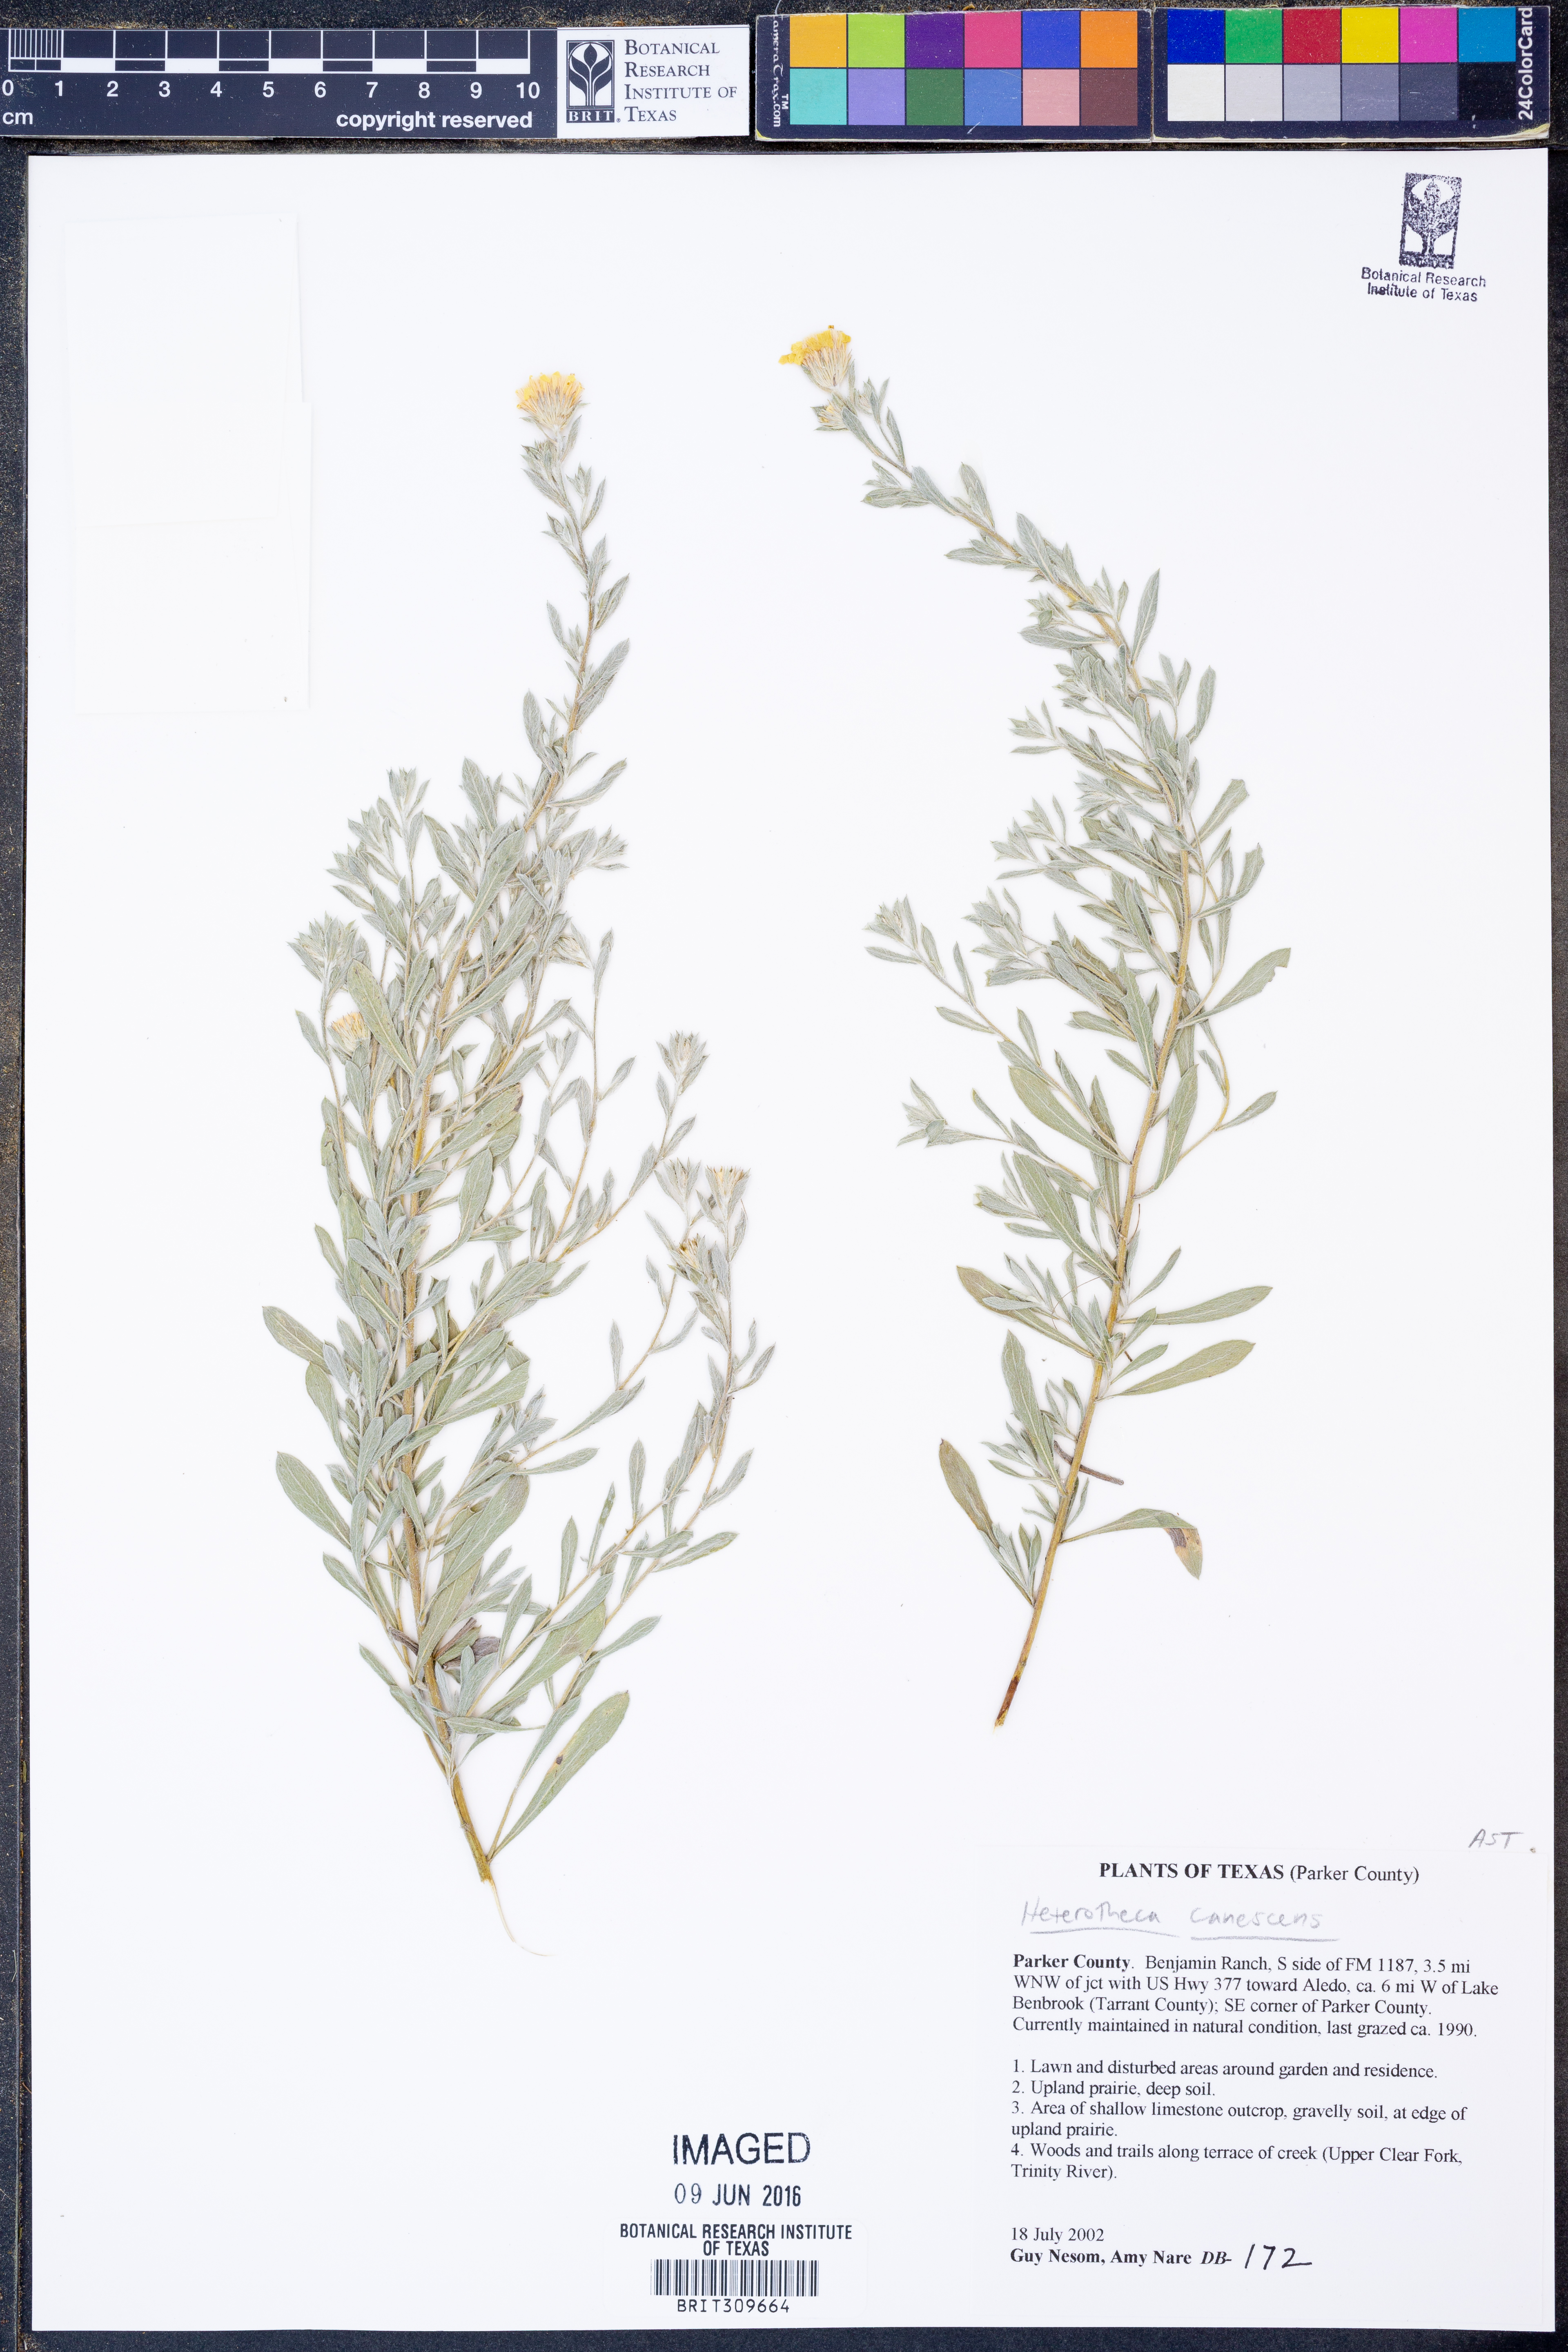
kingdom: Plantae
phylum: Tracheophyta
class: Magnoliopsida
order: Asterales
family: Asteraceae
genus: Heterotheca
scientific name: Heterotheca canescens
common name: Hoary golden-aster
